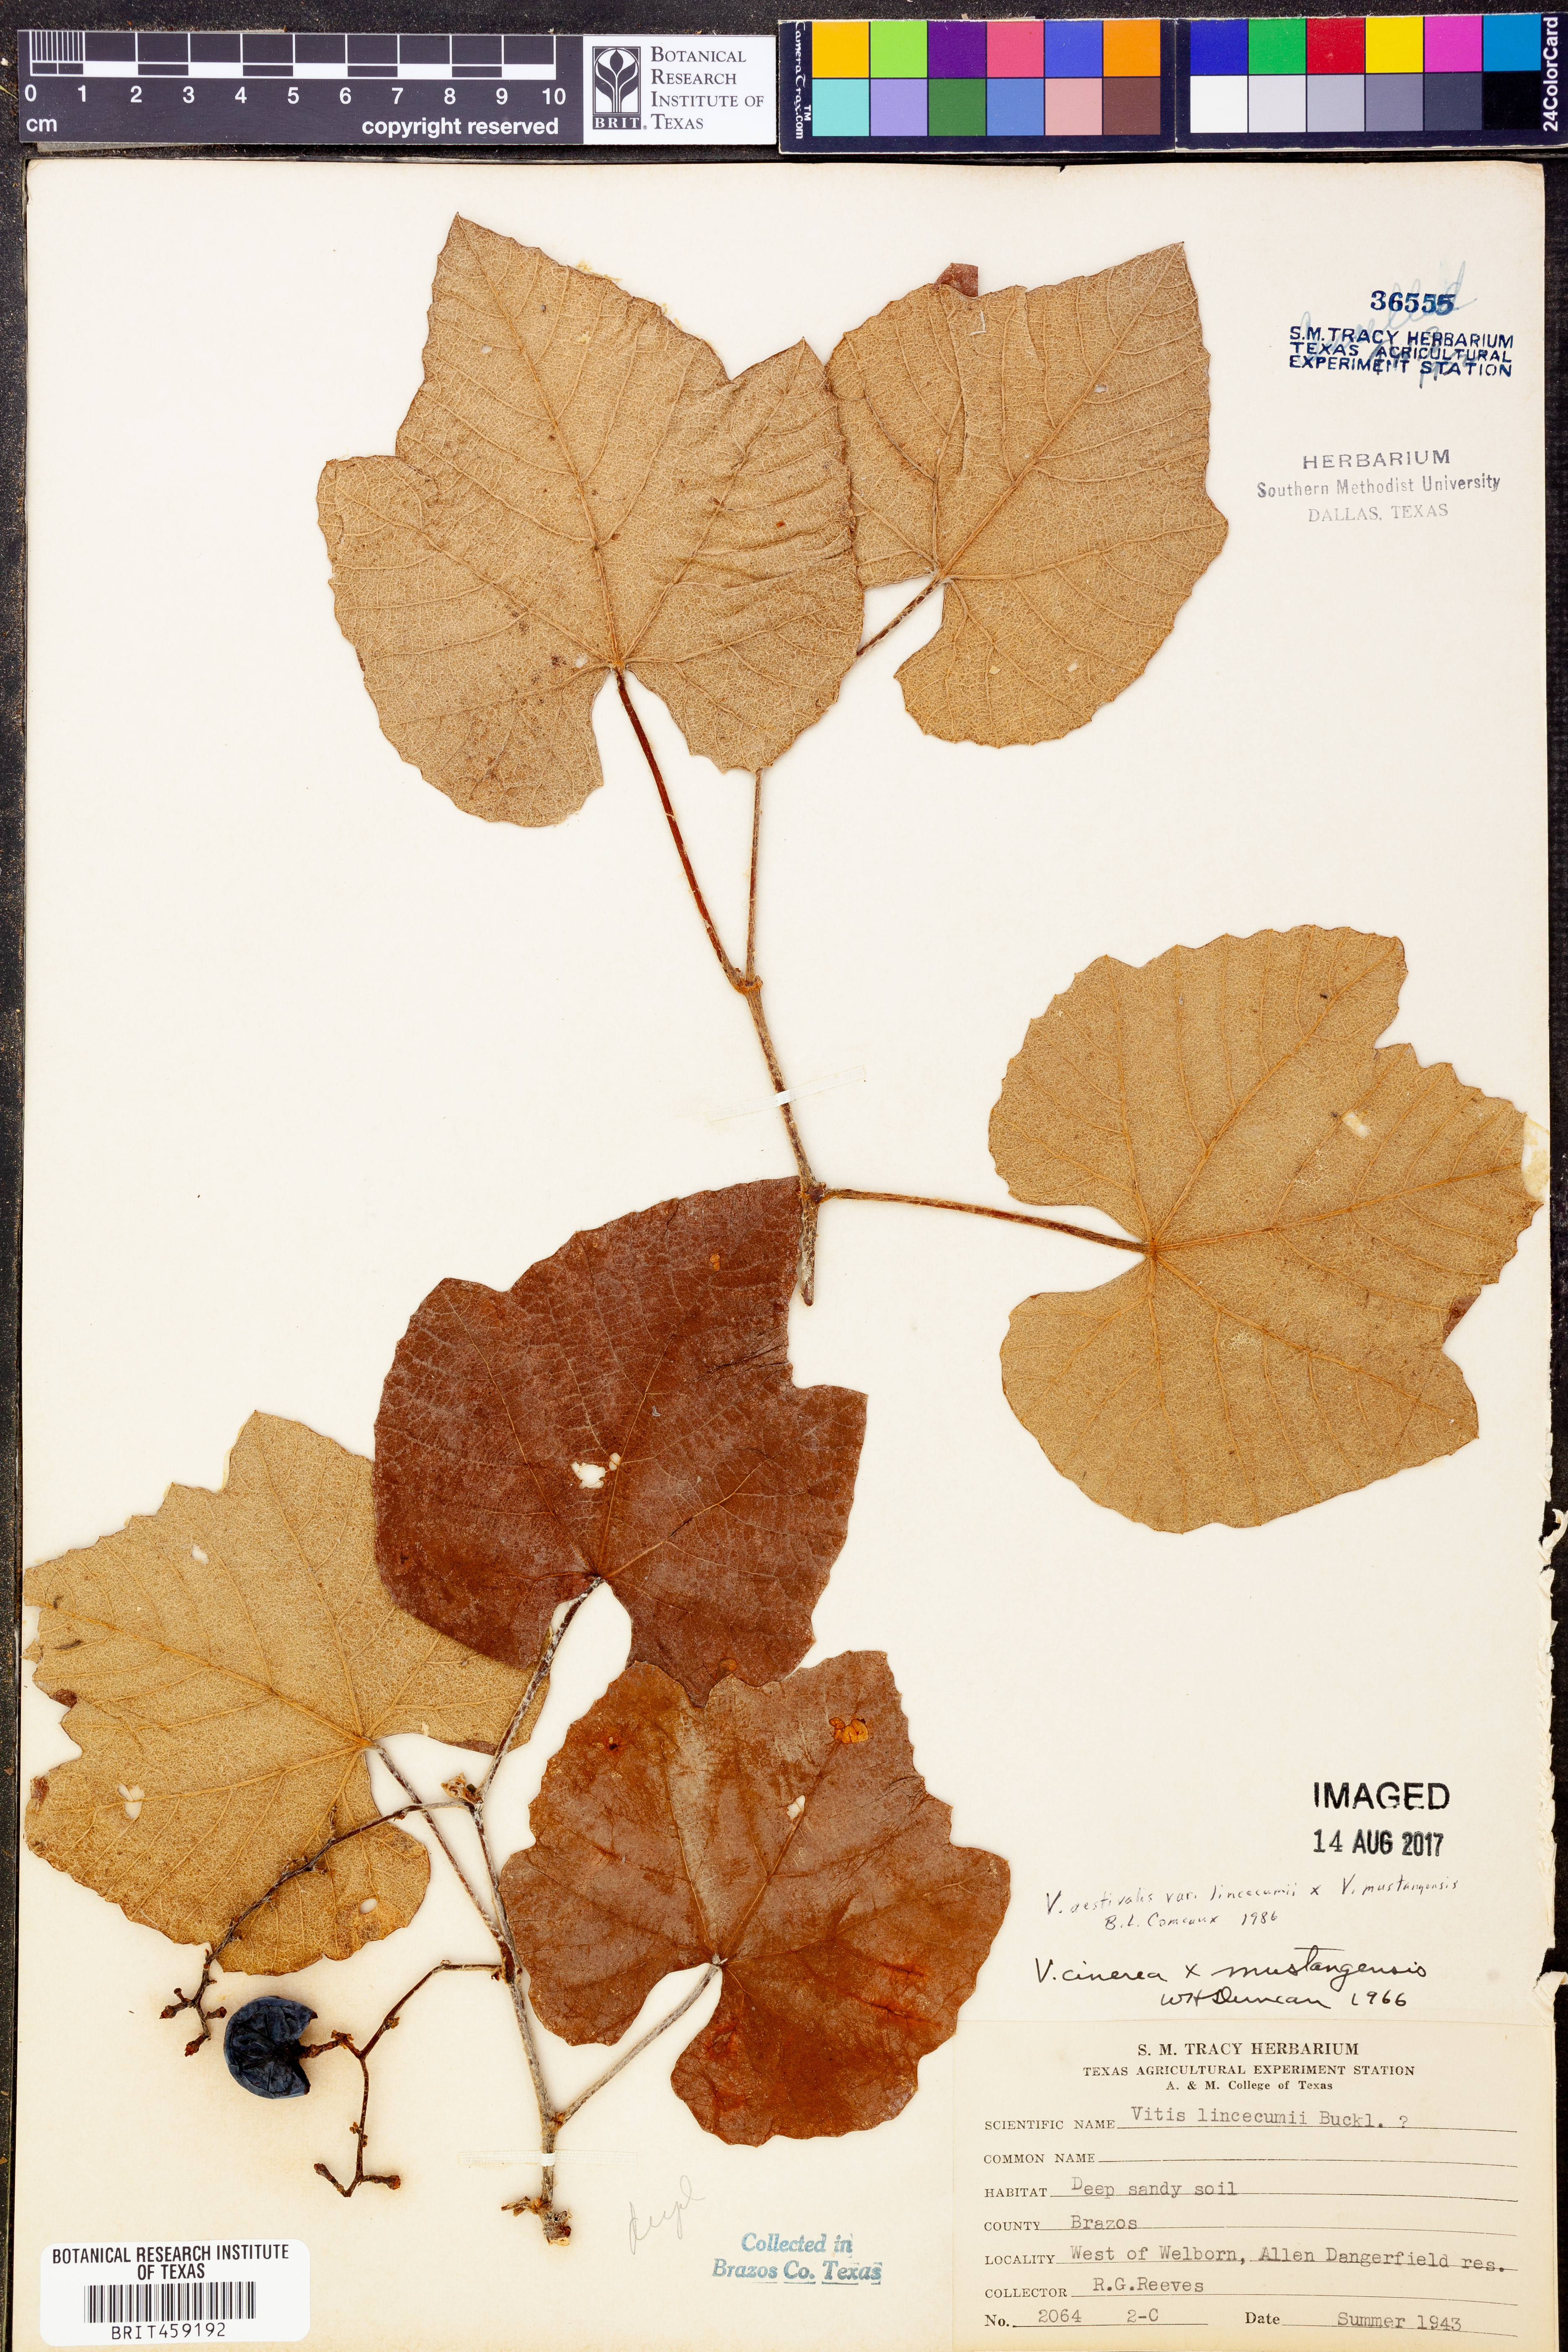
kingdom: Plantae
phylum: Tracheophyta
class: Magnoliopsida
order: Vitales
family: Vitaceae
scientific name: Vitaceae
